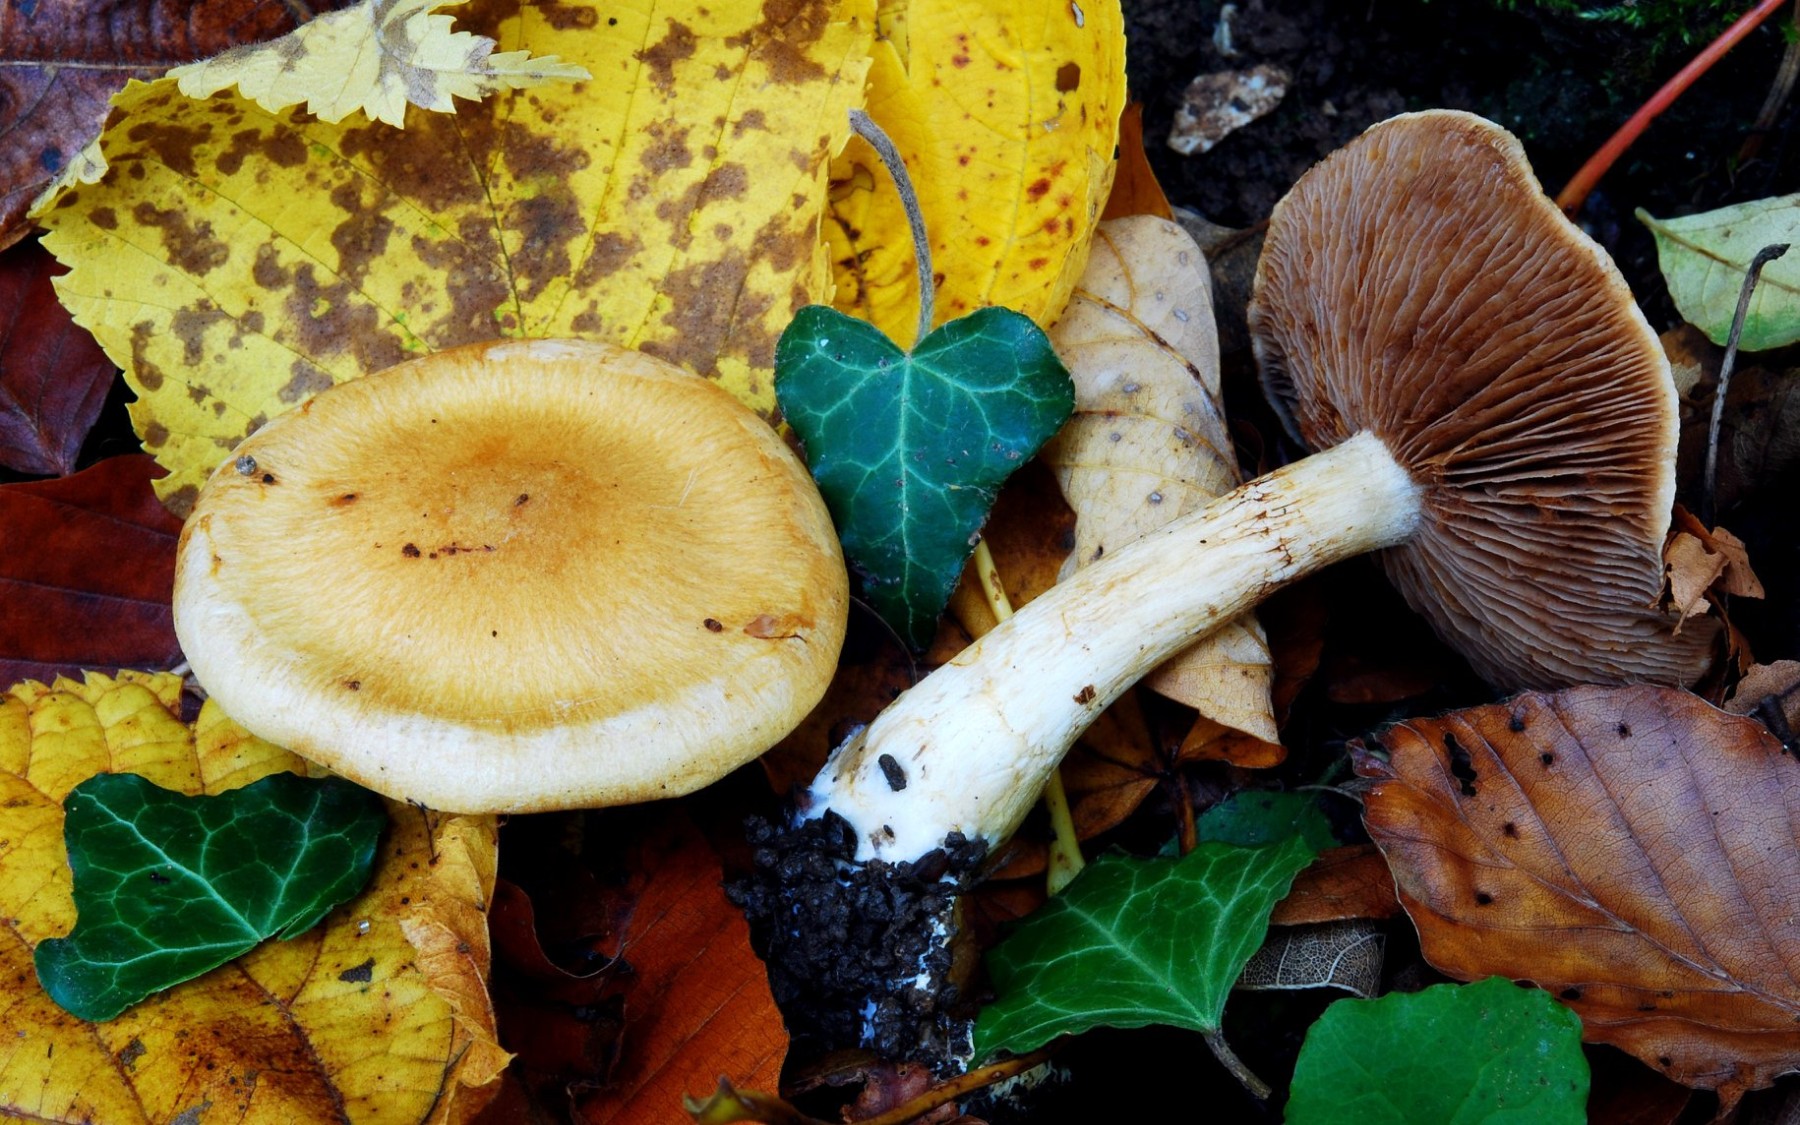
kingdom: Fungi
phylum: Basidiomycota
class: Agaricomycetes
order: Agaricales
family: Cortinariaceae
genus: Phlegmacium
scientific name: Phlegmacium tiliae
